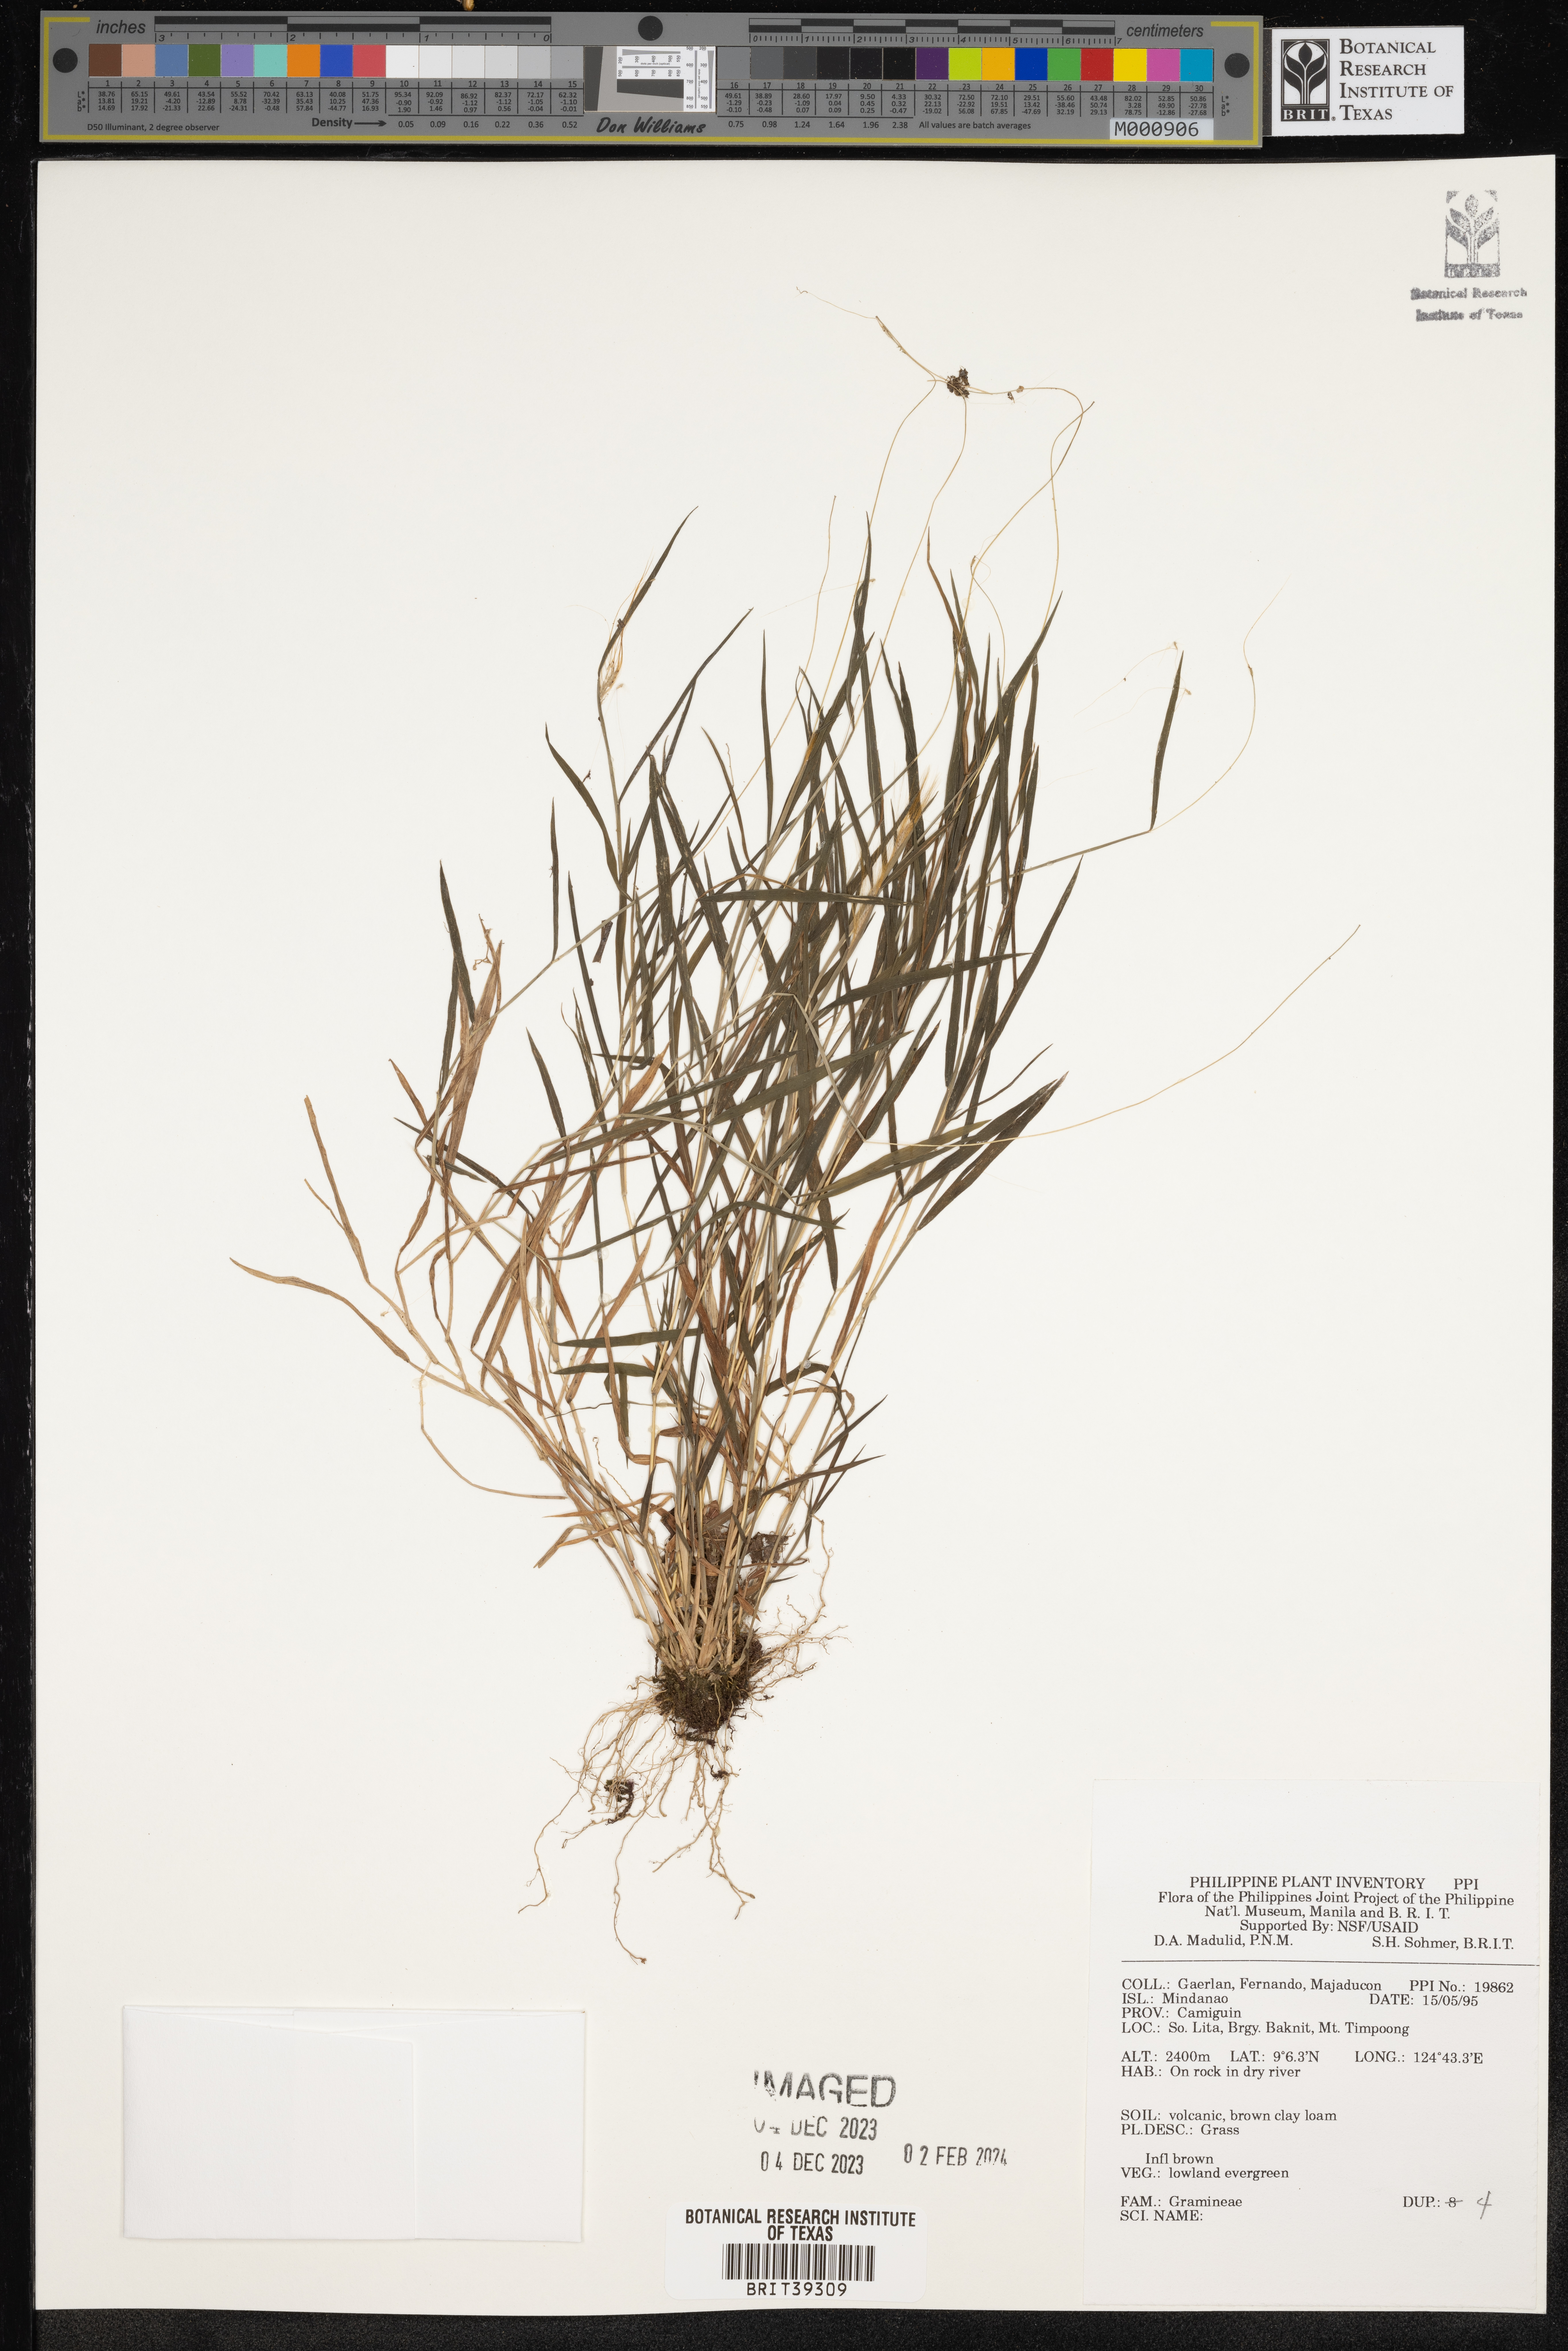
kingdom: Plantae
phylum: Tracheophyta
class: Liliopsida
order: Poales
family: Poaceae
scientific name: Poaceae
